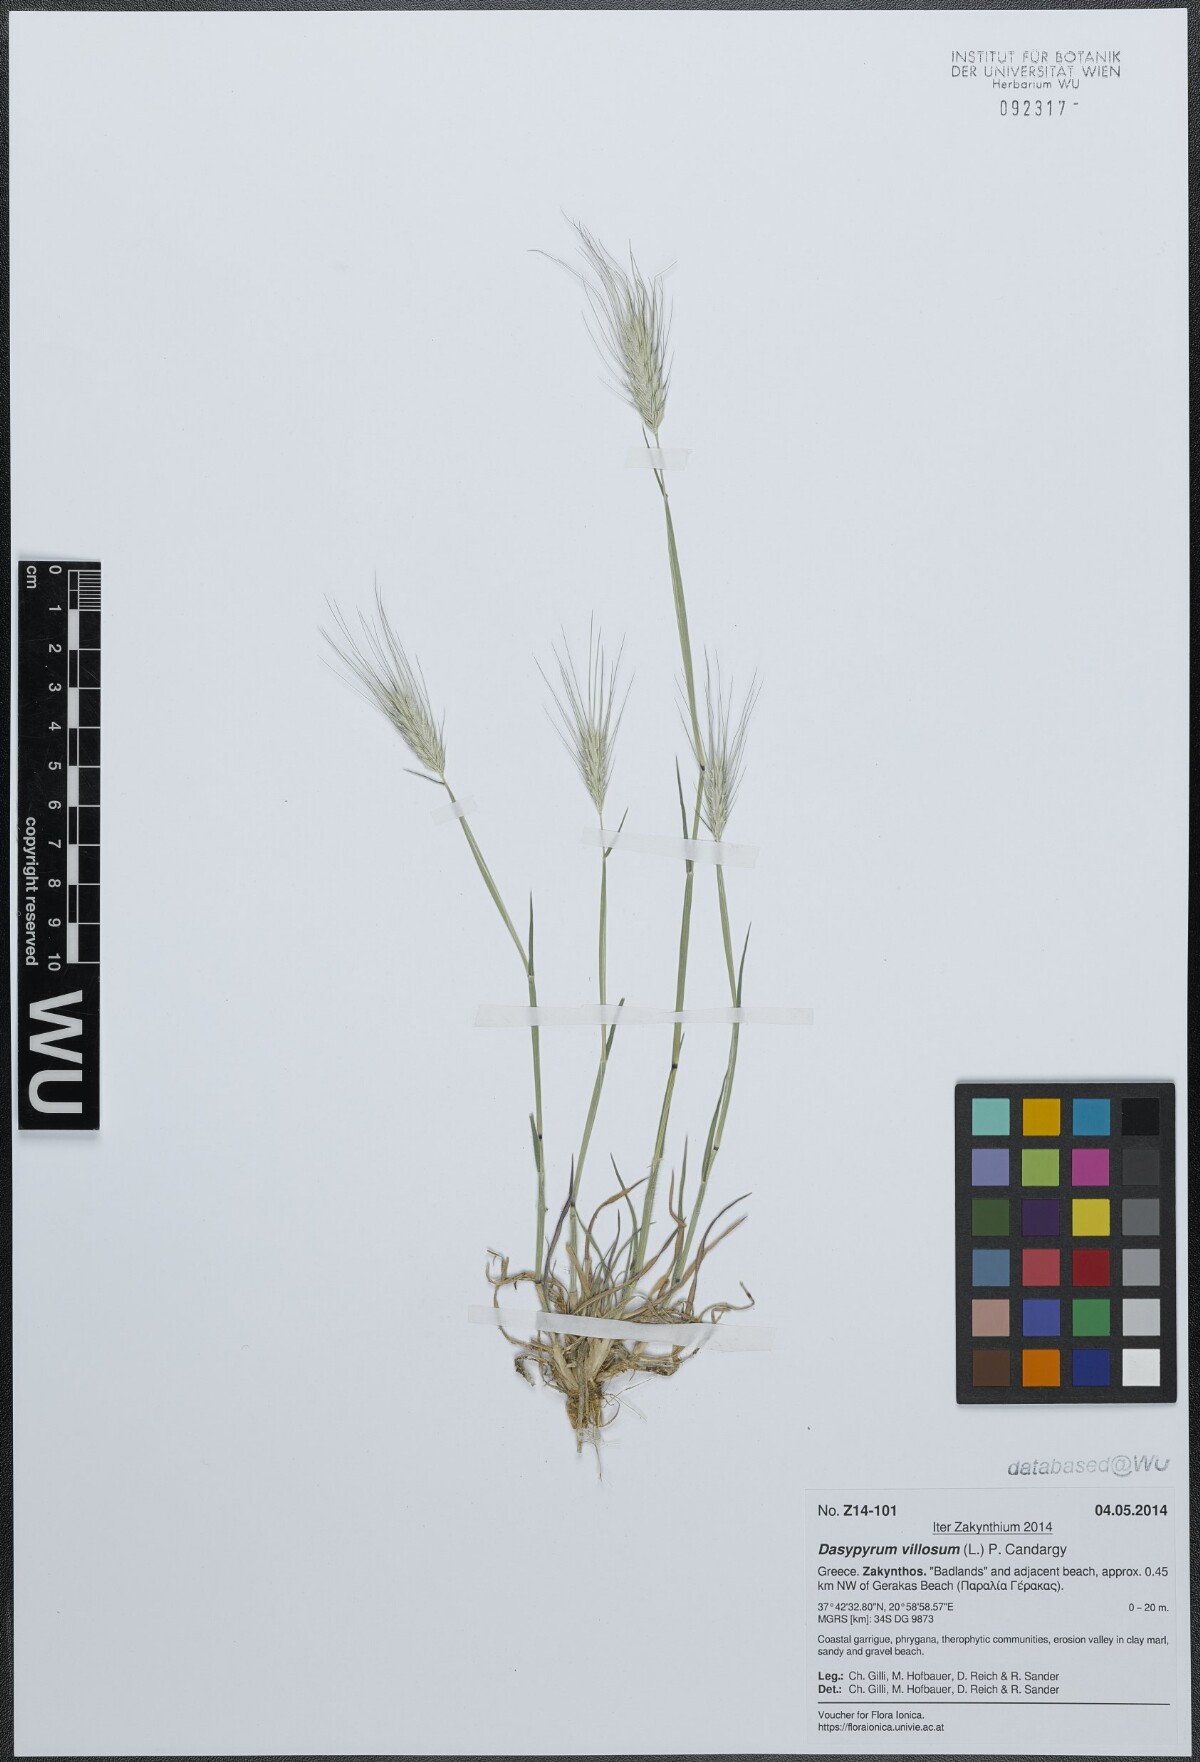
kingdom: Plantae
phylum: Tracheophyta
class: Liliopsida
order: Poales
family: Poaceae
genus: Dasypyrum
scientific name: Dasypyrum villosum
